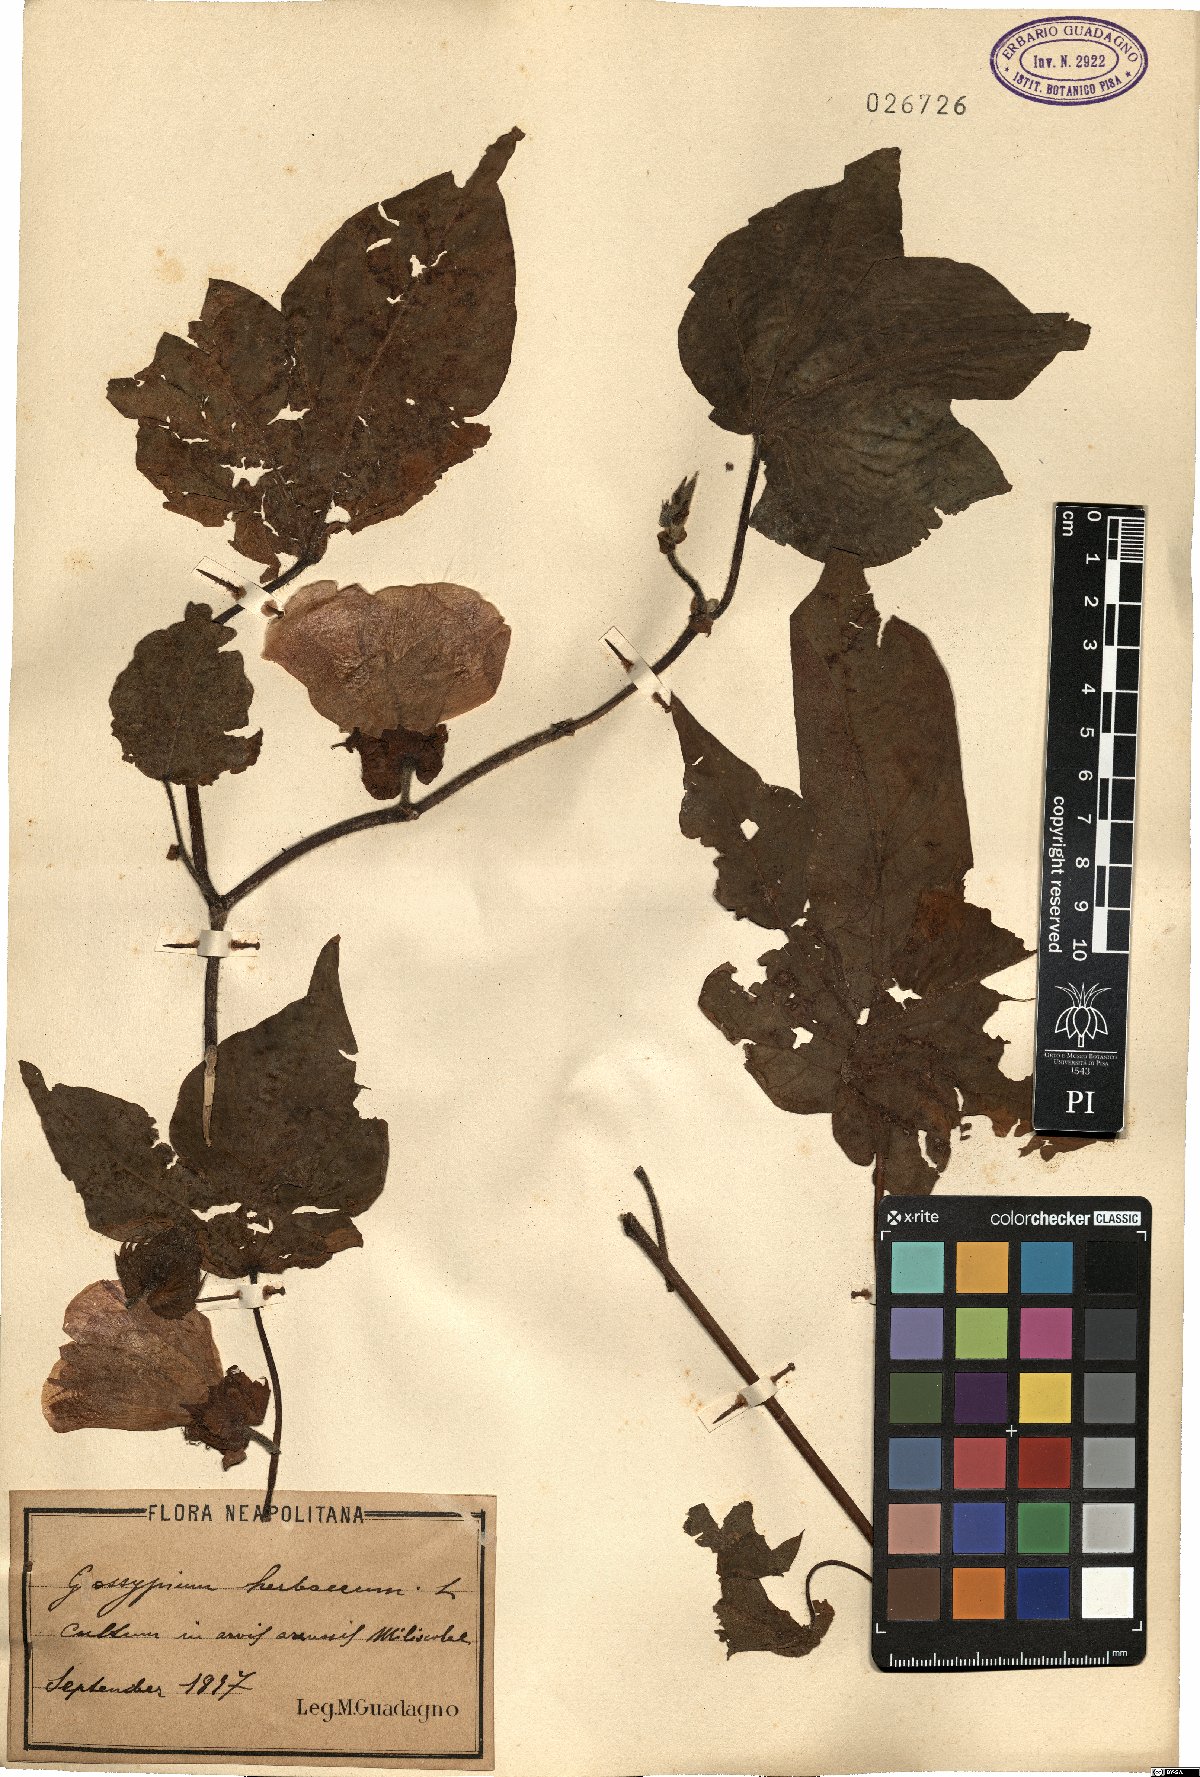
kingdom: Plantae
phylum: Tracheophyta
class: Magnoliopsida
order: Malvales
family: Malvaceae
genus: Gossypium
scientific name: Gossypium herbaceum
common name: Levant cotton
